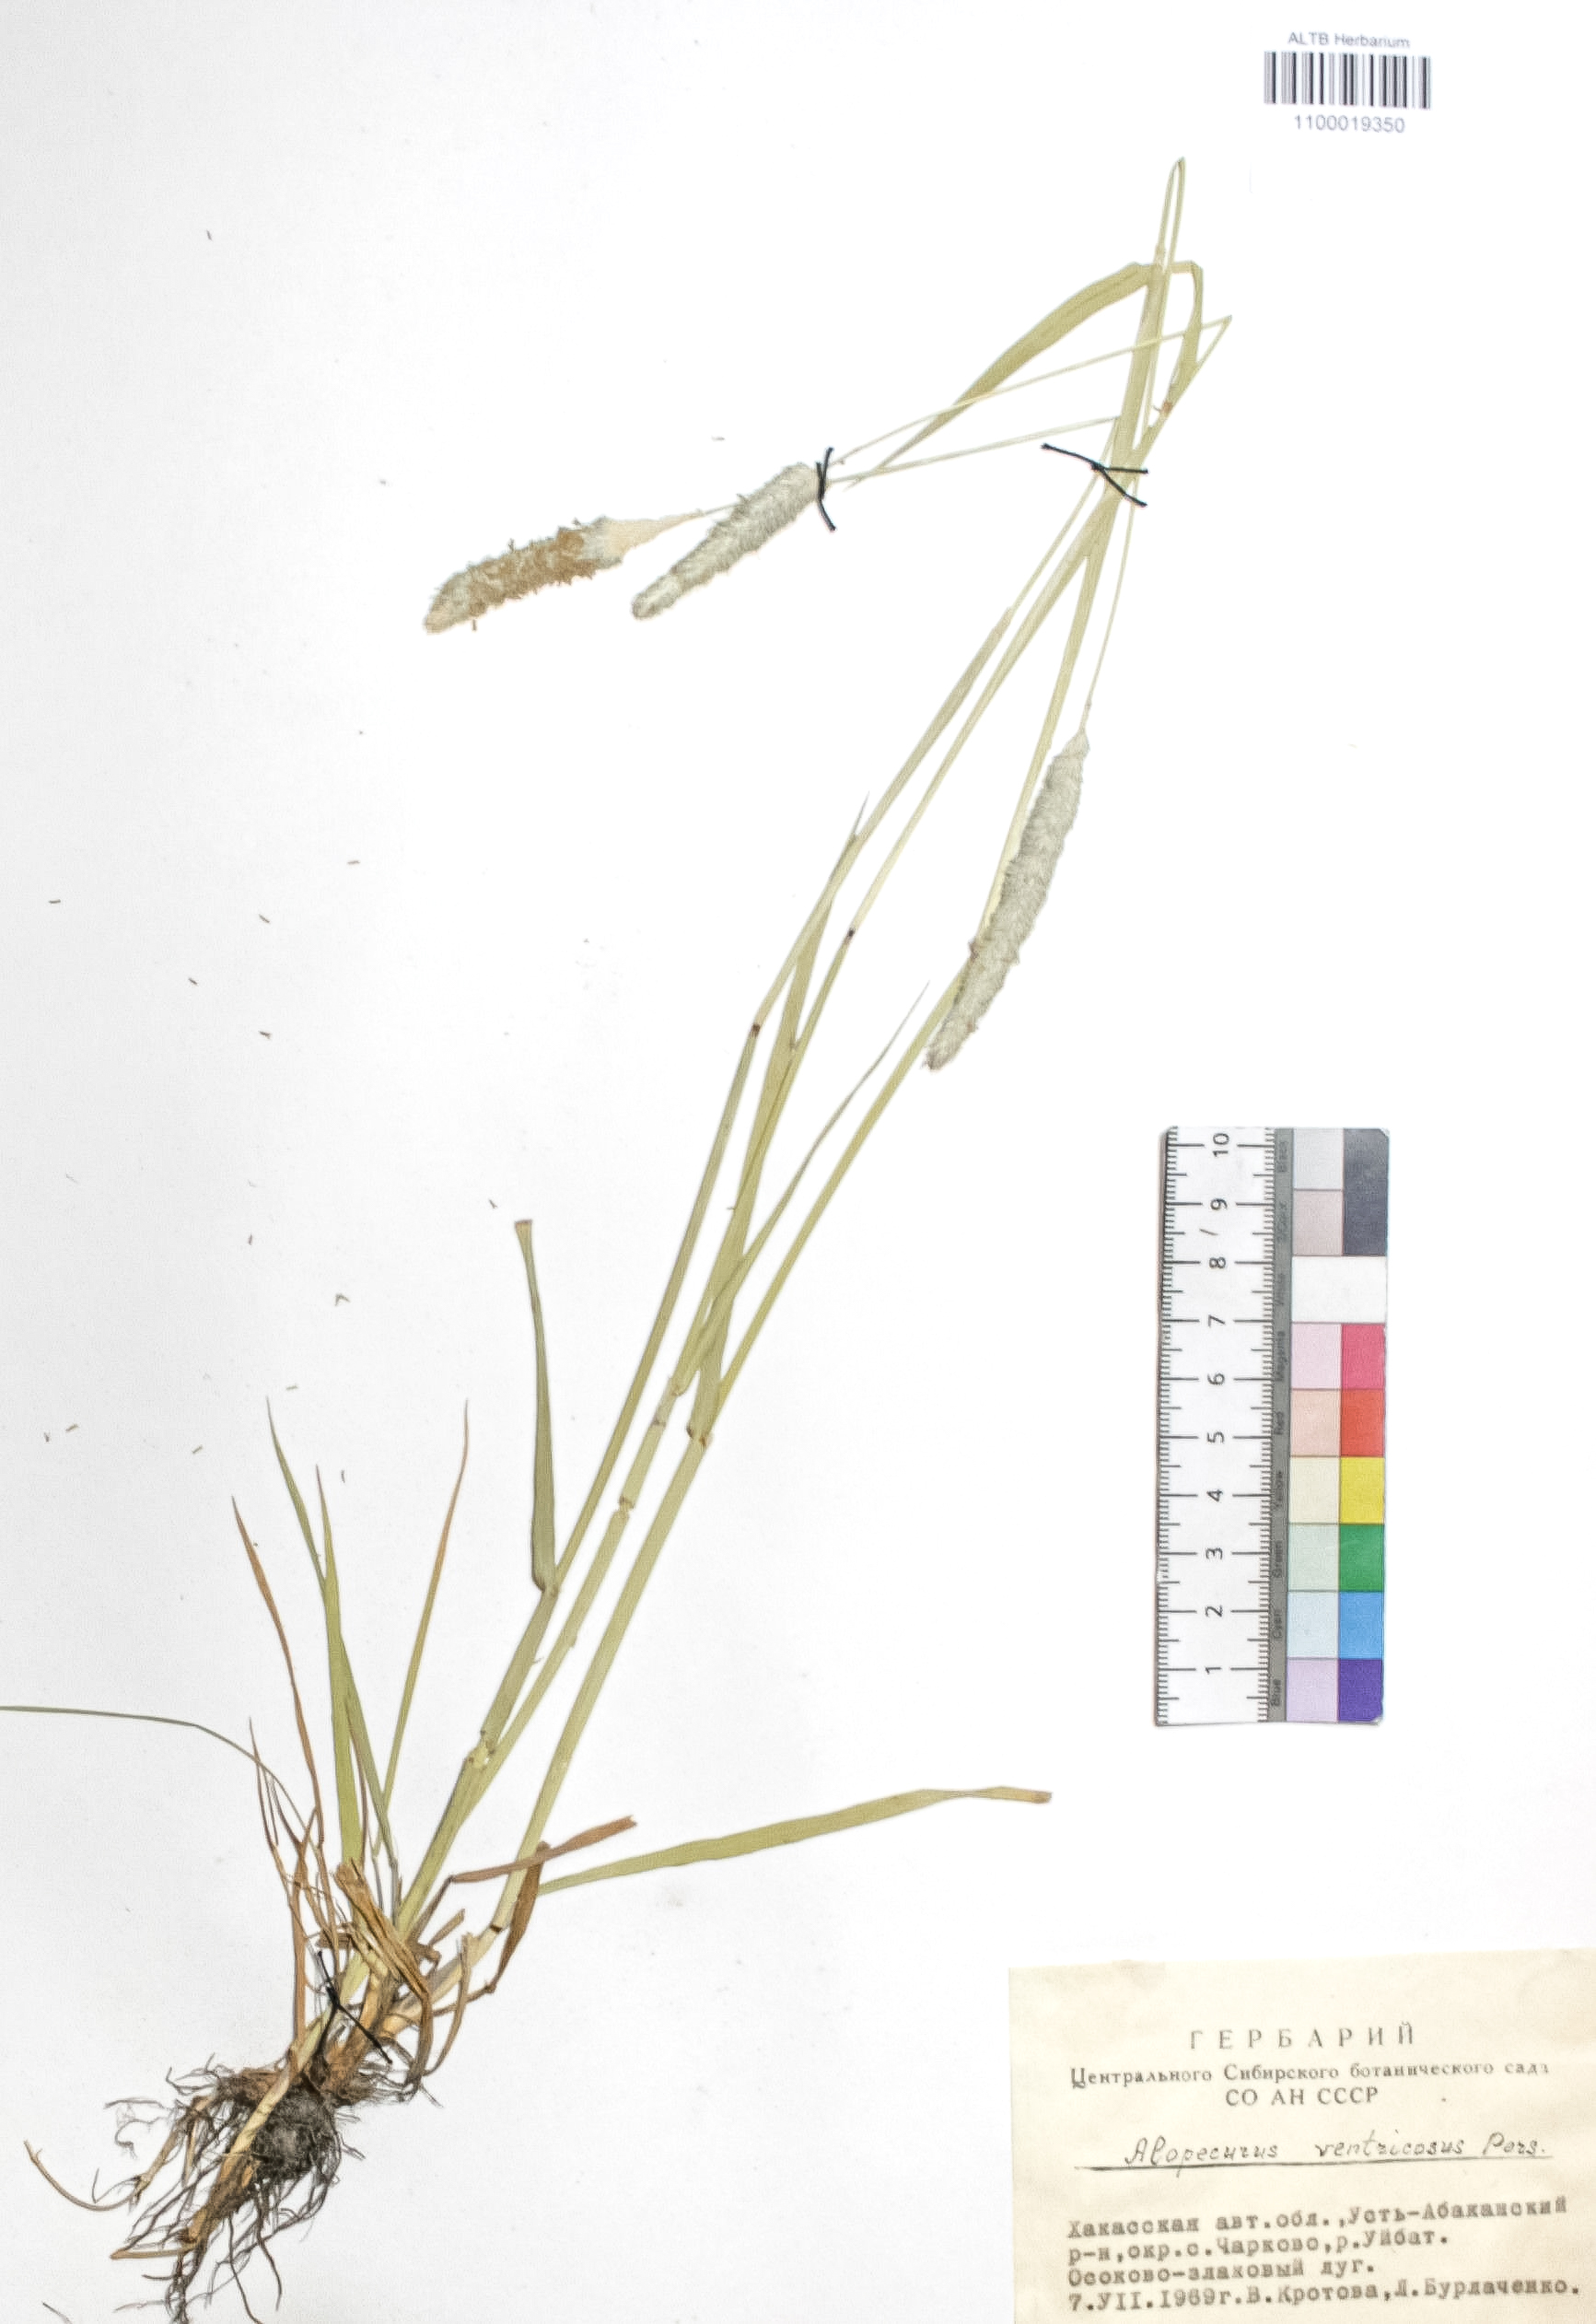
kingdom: Plantae
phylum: Tracheophyta
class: Liliopsida
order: Poales
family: Poaceae
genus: Alopecurus
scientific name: Alopecurus arundinaceus
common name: Creeping meadow foxtail
